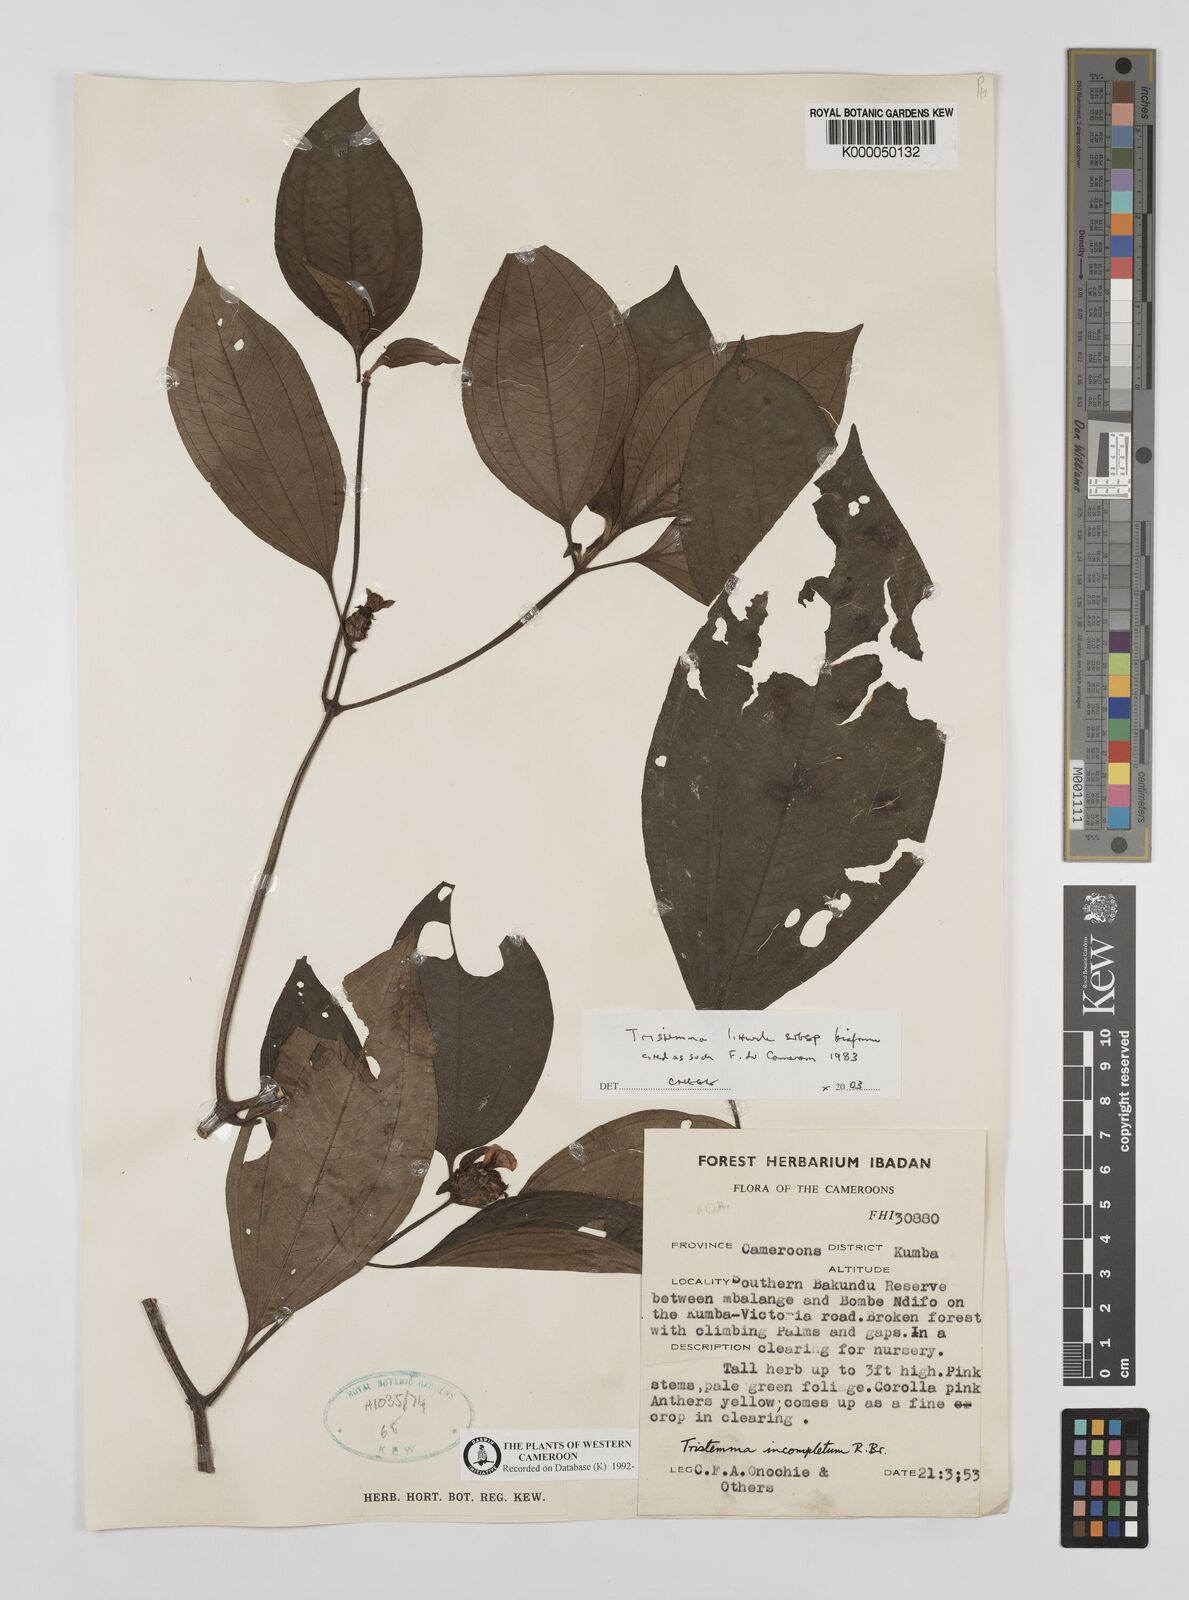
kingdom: Plantae
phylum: Tracheophyta
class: Magnoliopsida
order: Myrtales
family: Melastomataceae
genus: Tristemma
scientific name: Tristemma littorale
